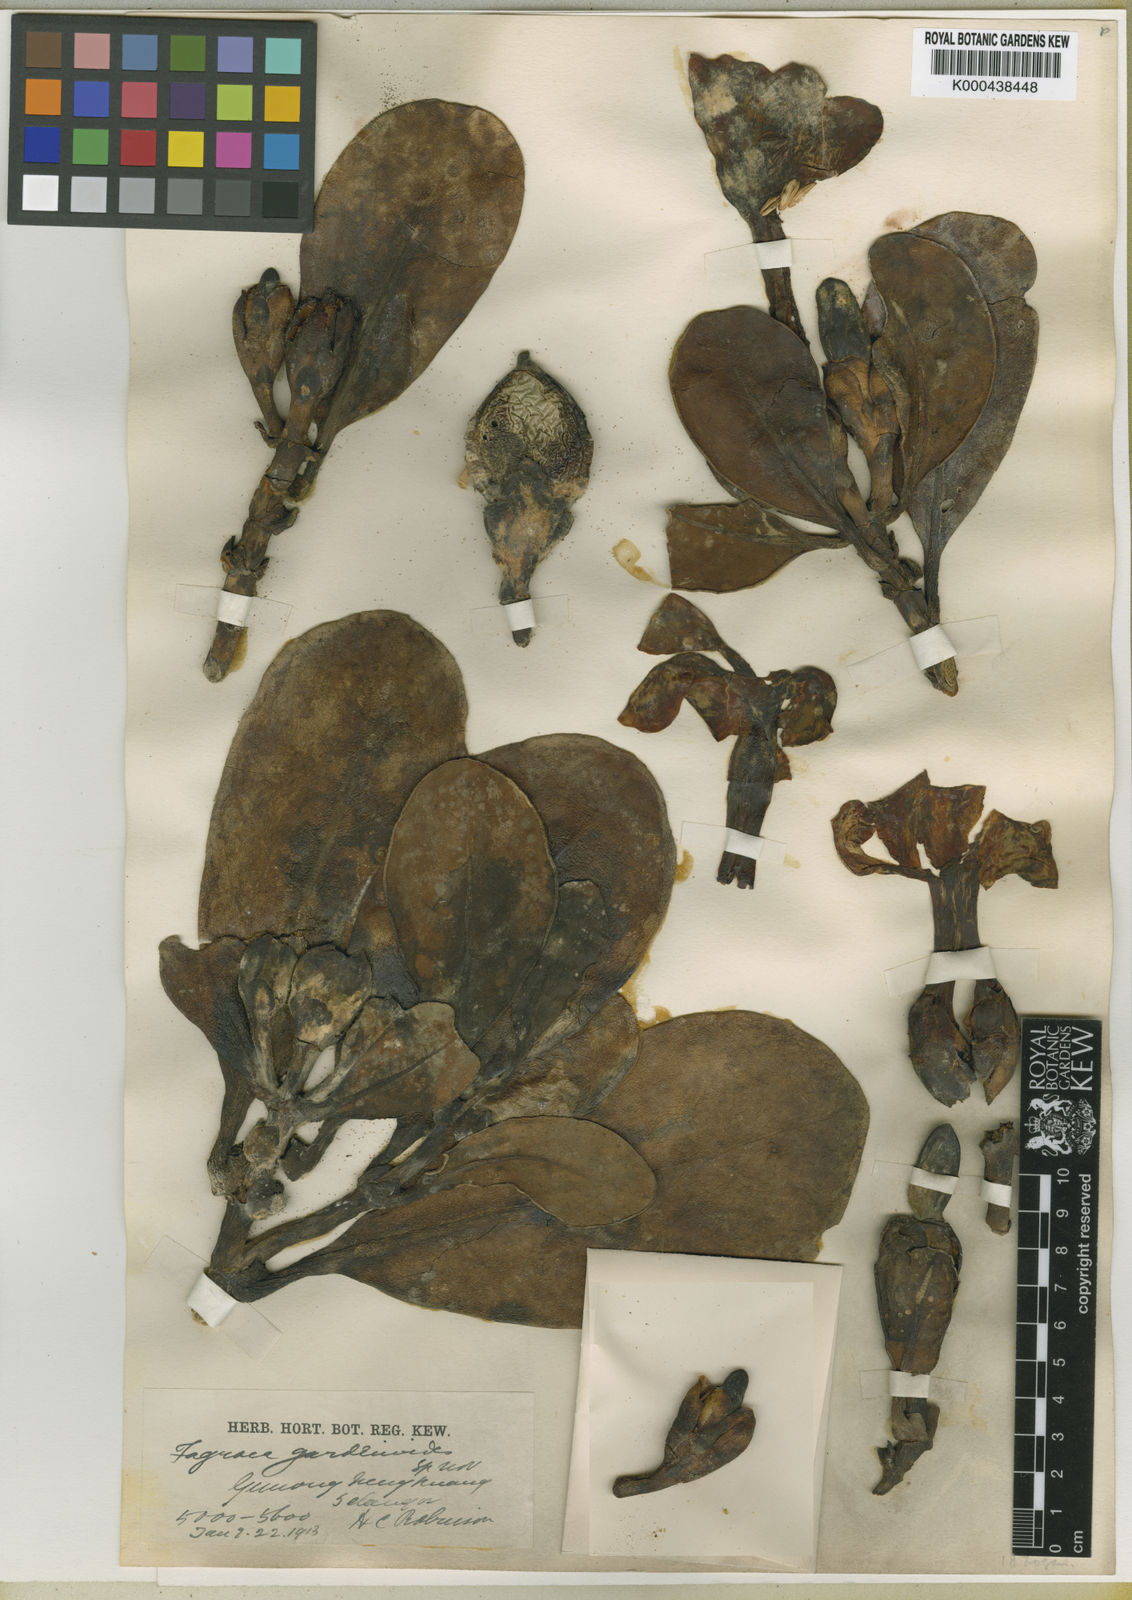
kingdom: Plantae
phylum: Tracheophyta
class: Magnoliopsida
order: Gentianales
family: Gentianaceae
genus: Fagraea
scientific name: Fagraea gardenioides
